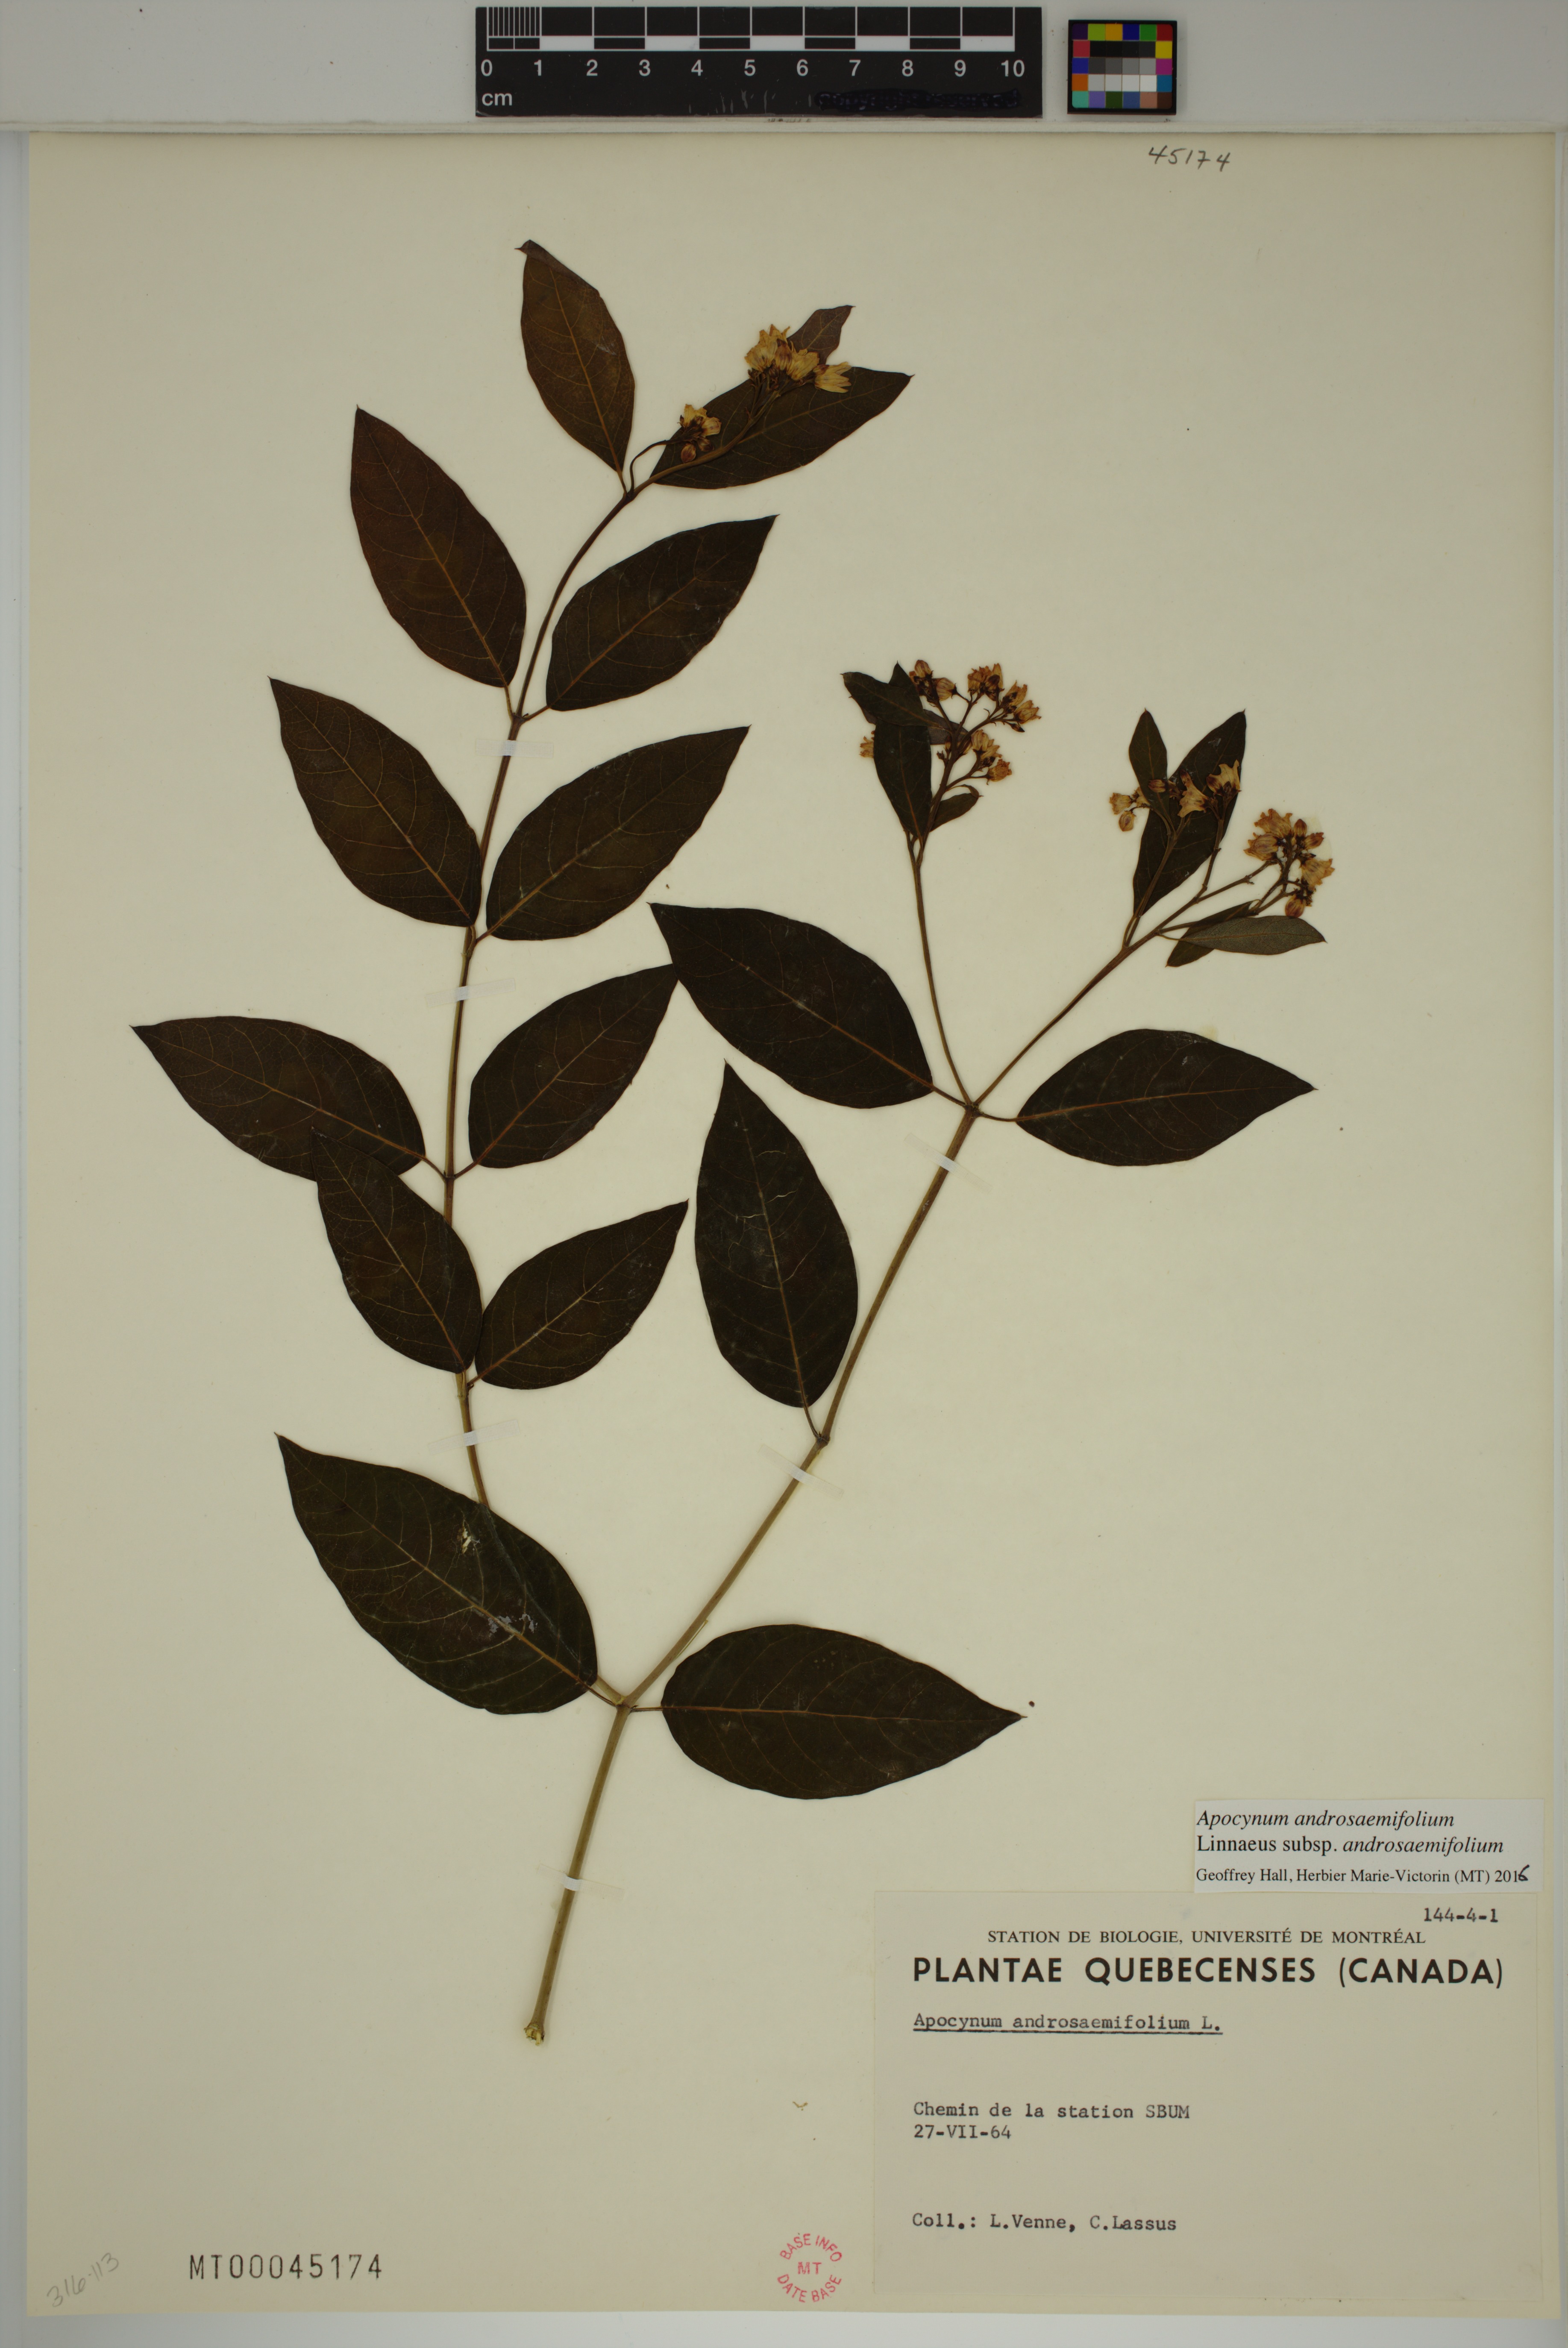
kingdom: Plantae
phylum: Tracheophyta
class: Magnoliopsida
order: Gentianales
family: Apocynaceae
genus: Apocynum
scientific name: Apocynum androsaemifolium
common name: Spreading dogbane
